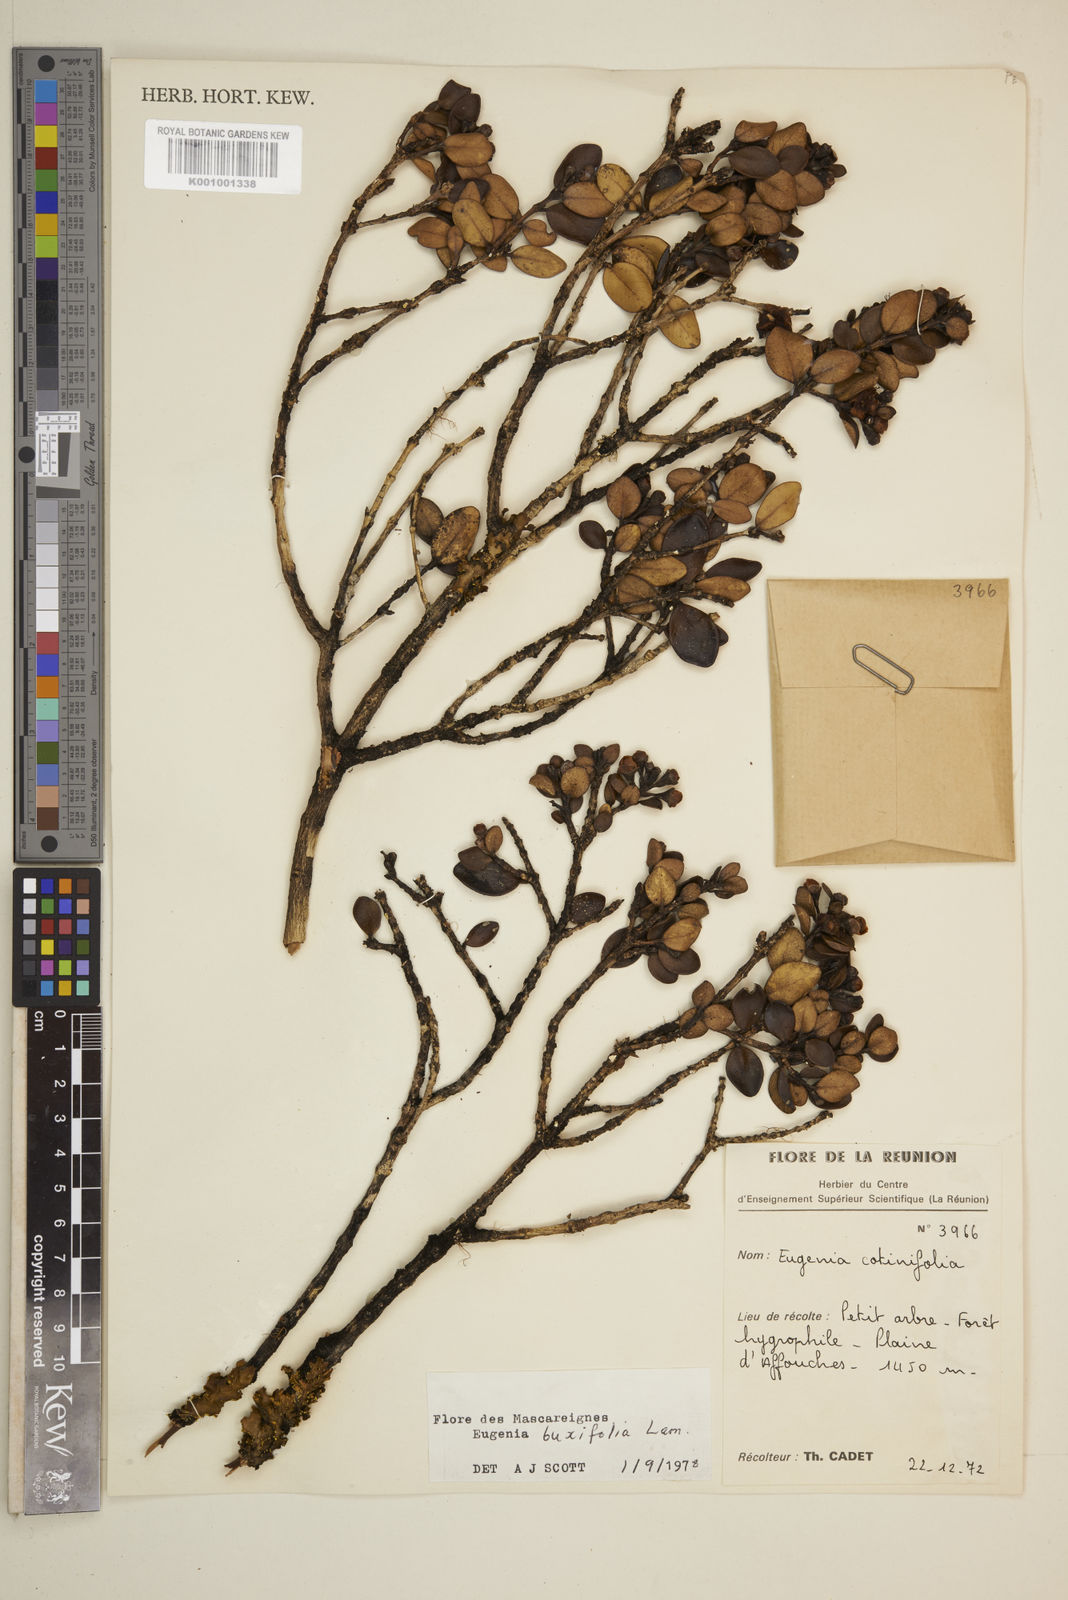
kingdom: Plantae
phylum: Tracheophyta
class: Magnoliopsida
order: Myrtales
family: Myrtaceae
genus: Eugenia
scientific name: Eugenia buxifolia
